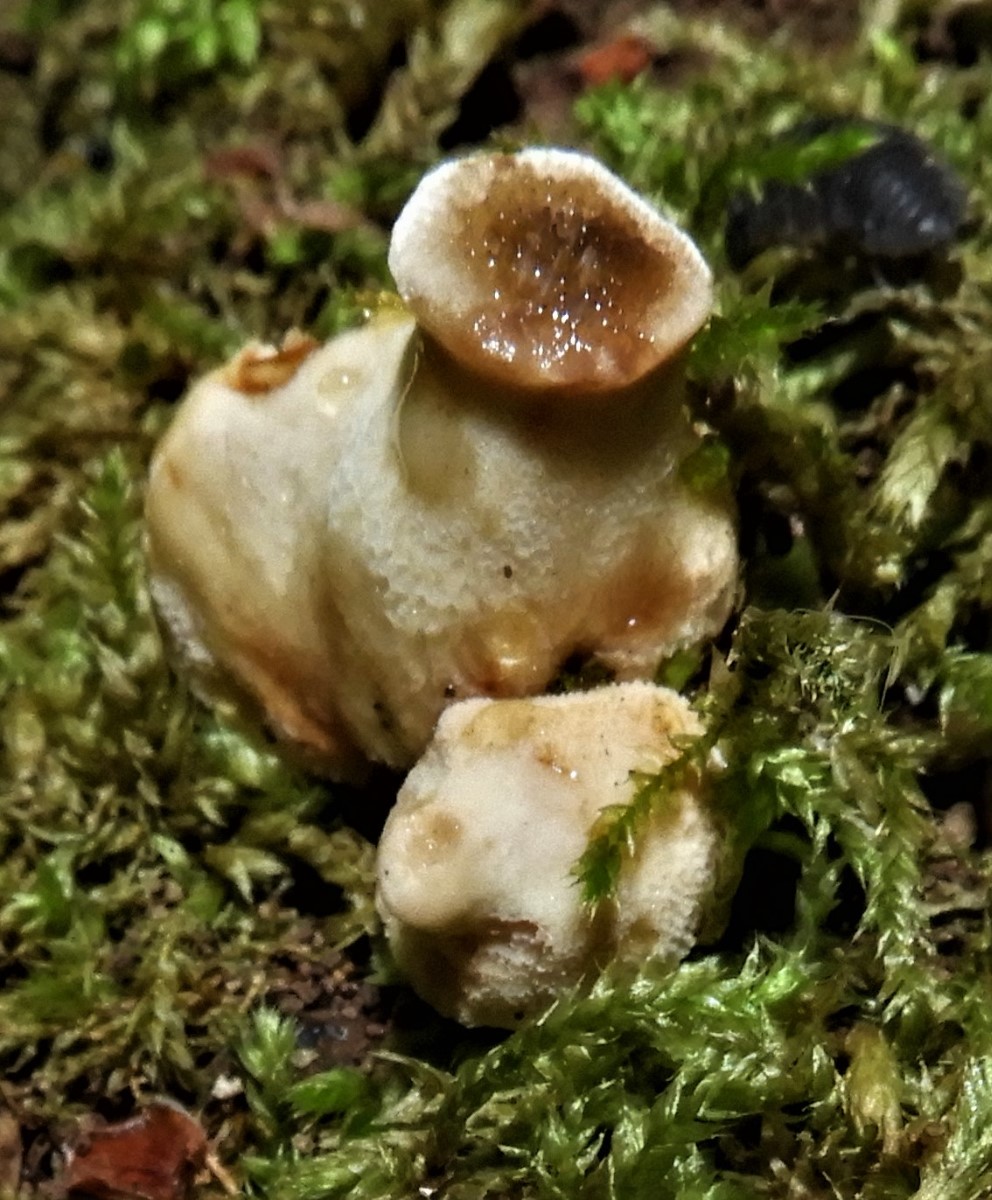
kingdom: Fungi
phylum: Basidiomycota
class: Agaricomycetes
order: Polyporales
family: Polyporaceae
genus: Cerioporus
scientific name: Cerioporus varius
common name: foranderlig stilkporesvamp
